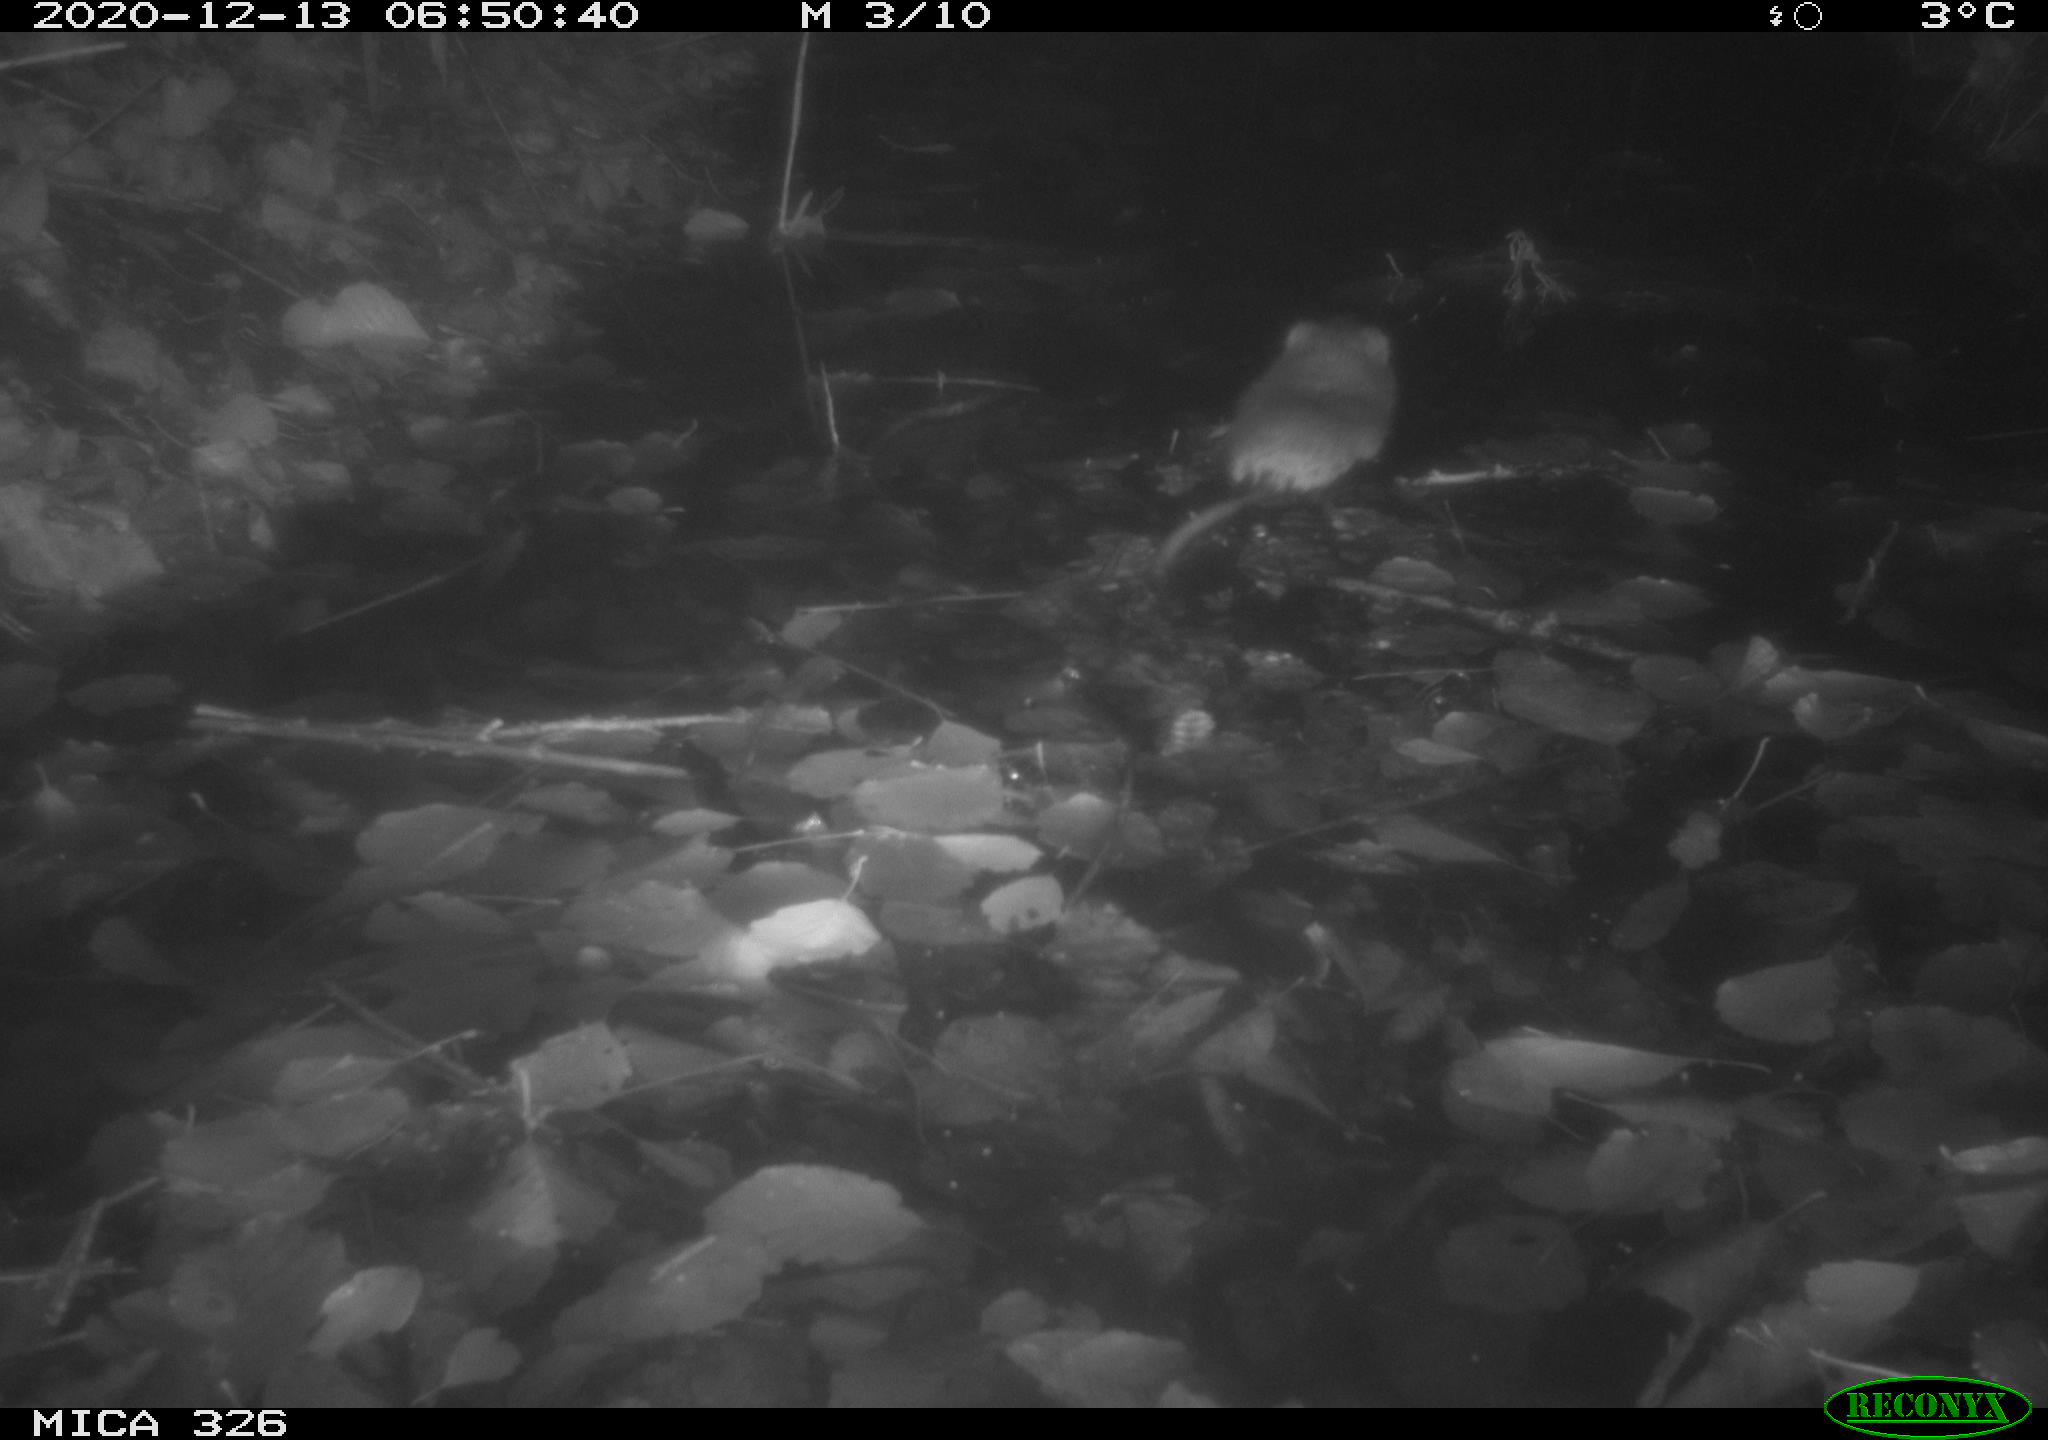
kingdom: Animalia
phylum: Chordata
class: Mammalia
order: Rodentia
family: Cricetidae
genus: Ondatra
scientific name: Ondatra zibethicus
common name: Muskrat
